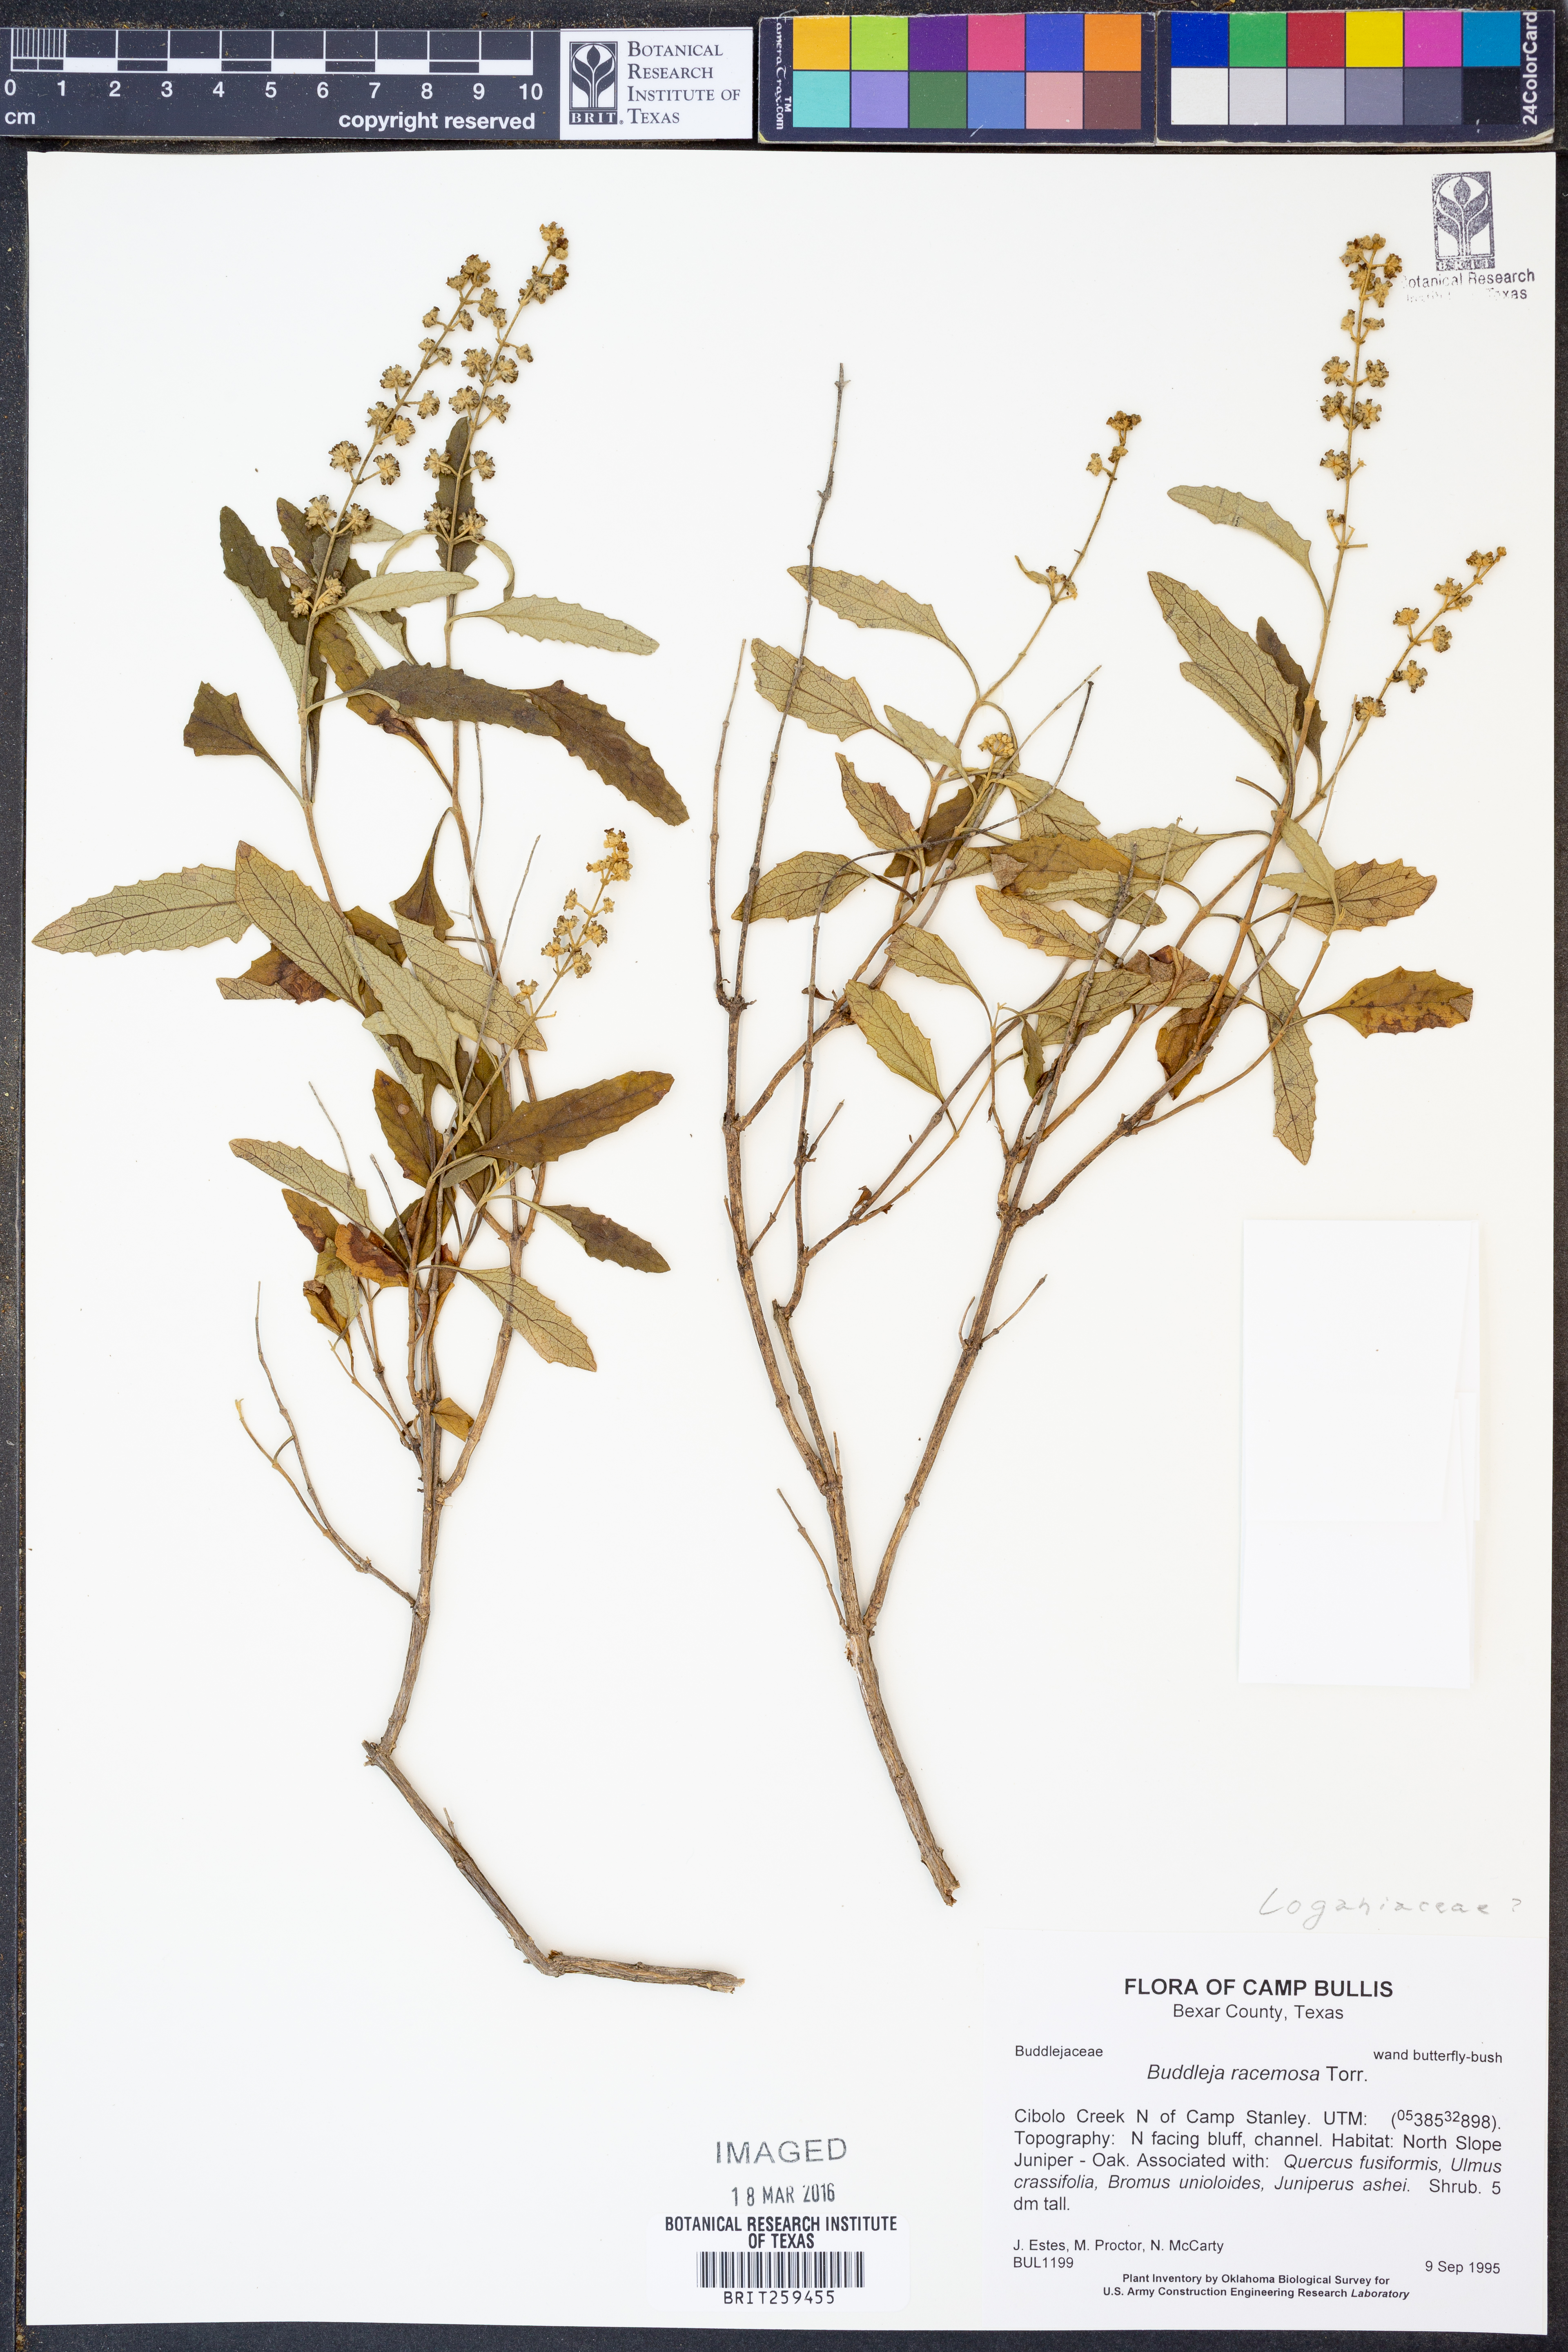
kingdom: Plantae
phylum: Tracheophyta
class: Magnoliopsida
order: Lamiales
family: Scrophulariaceae
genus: Buddleja
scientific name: Buddleja racemosa
